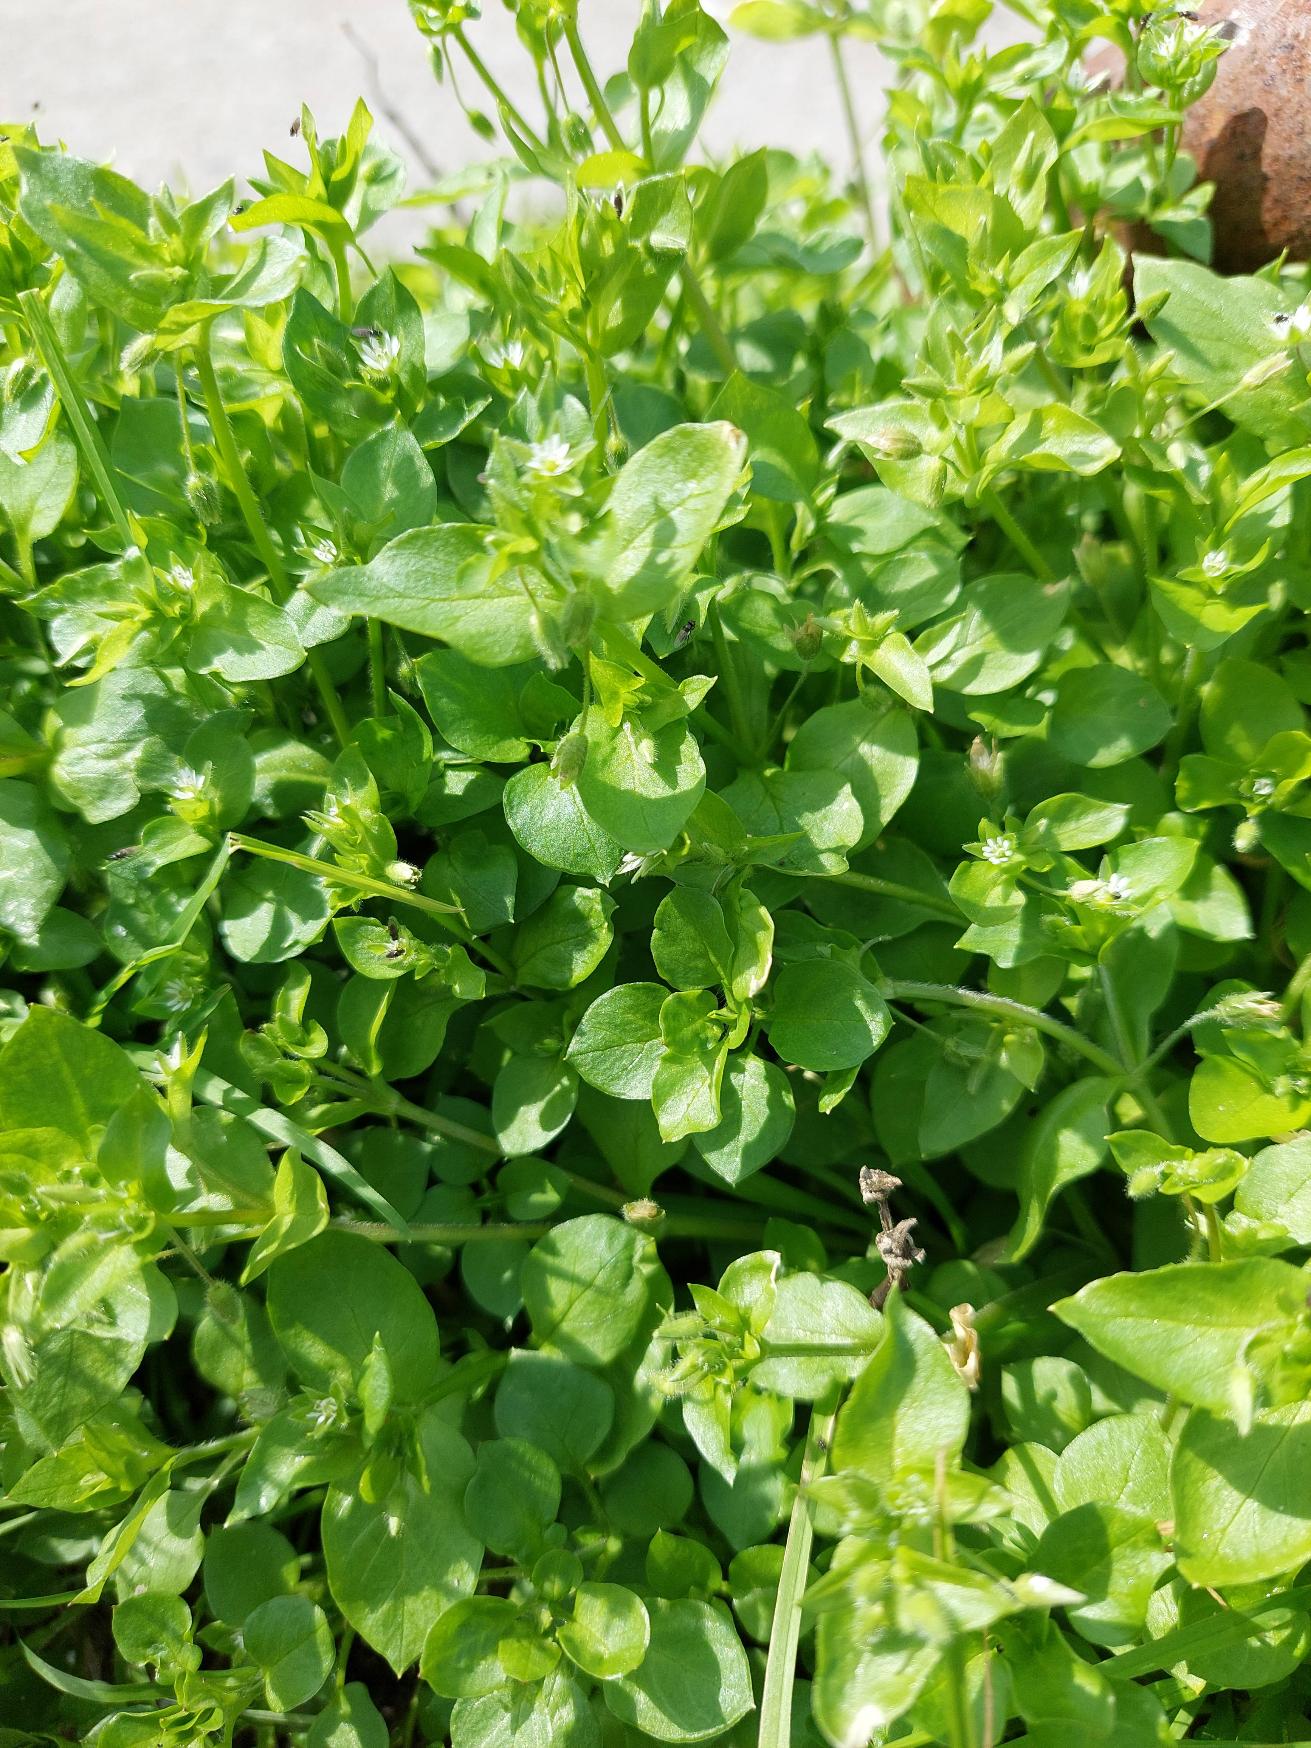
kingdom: Plantae
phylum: Tracheophyta
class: Magnoliopsida
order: Caryophyllales
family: Caryophyllaceae
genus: Stellaria
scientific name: Stellaria media
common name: Almindelig fuglegræs
